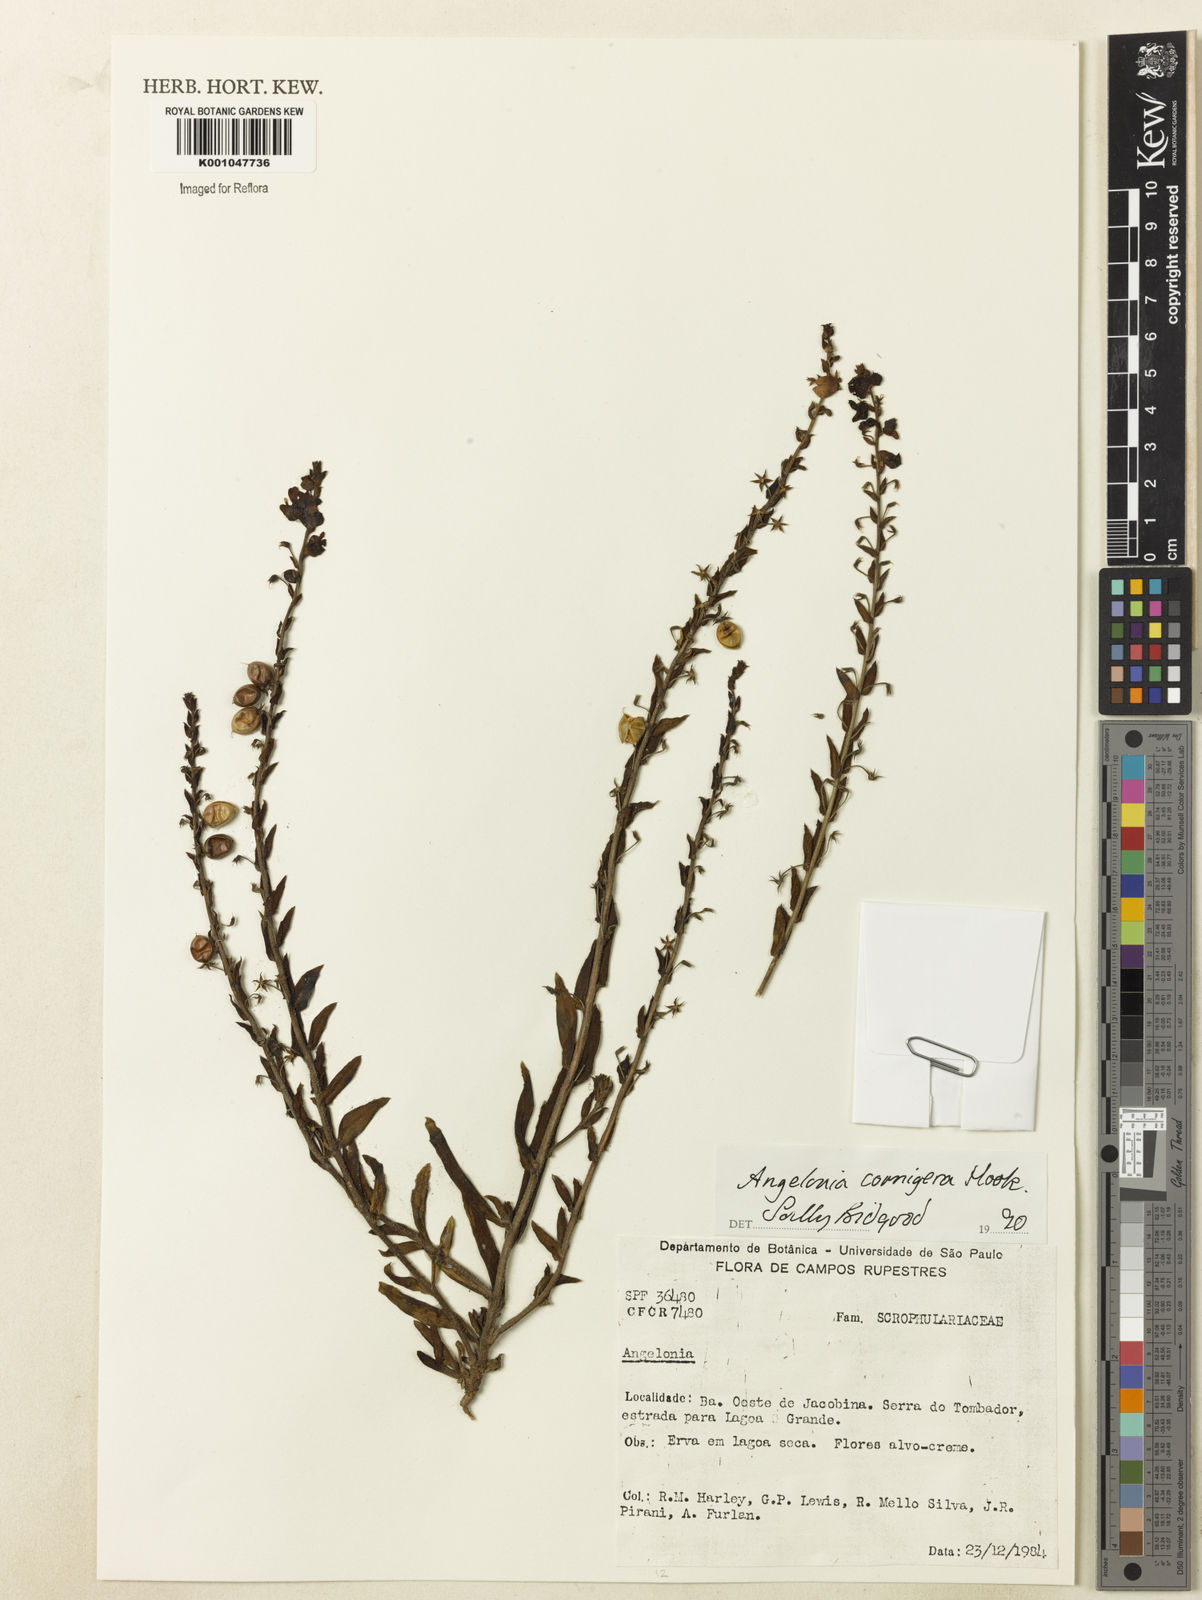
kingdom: Plantae
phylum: Tracheophyta
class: Magnoliopsida
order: Lamiales
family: Plantaginaceae
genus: Angelonia
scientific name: Angelonia cornigera
